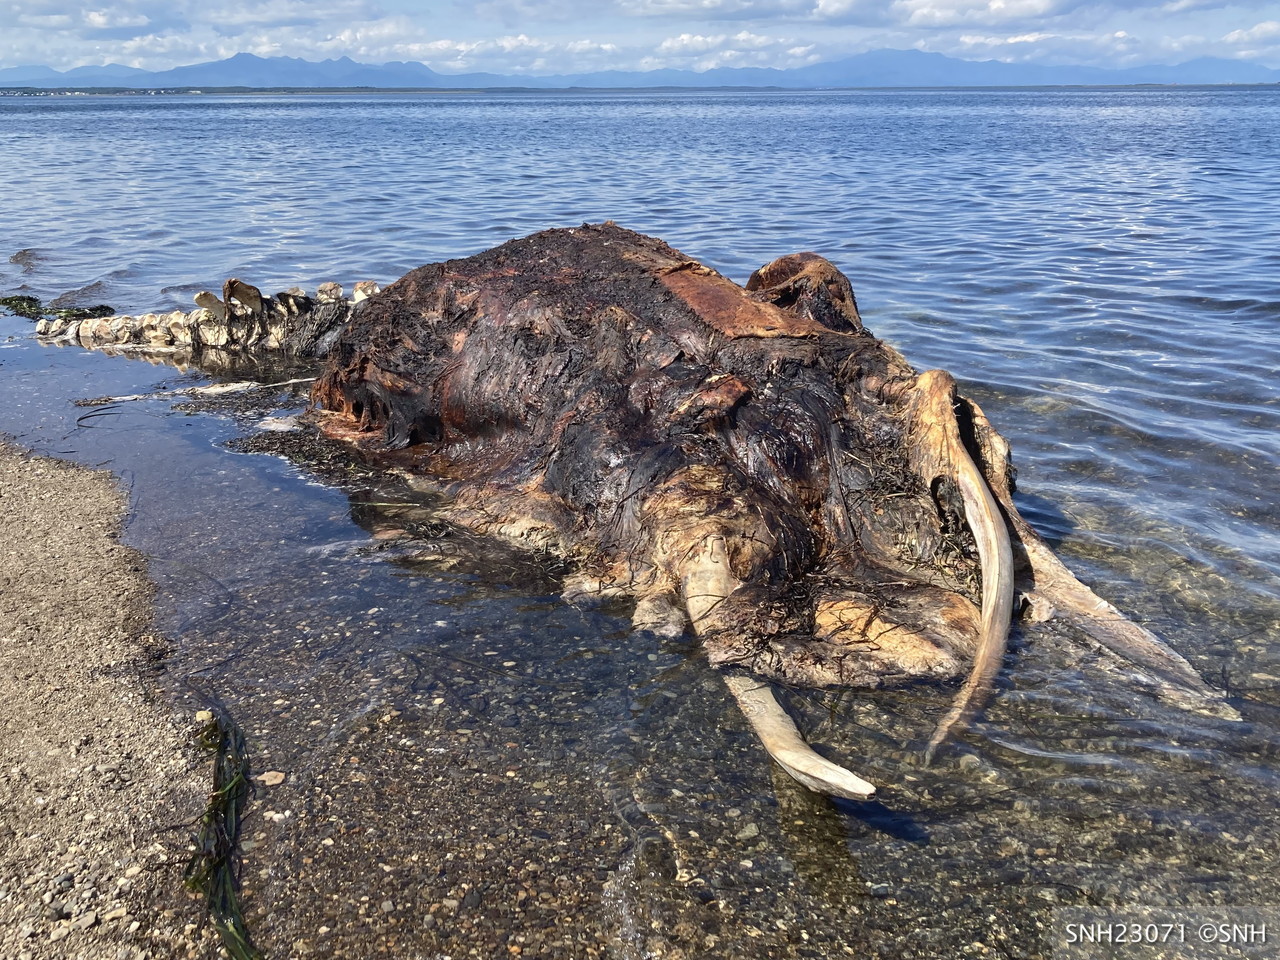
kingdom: Animalia
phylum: Chordata
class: Mammalia
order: Cetacea
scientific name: Cetacea
